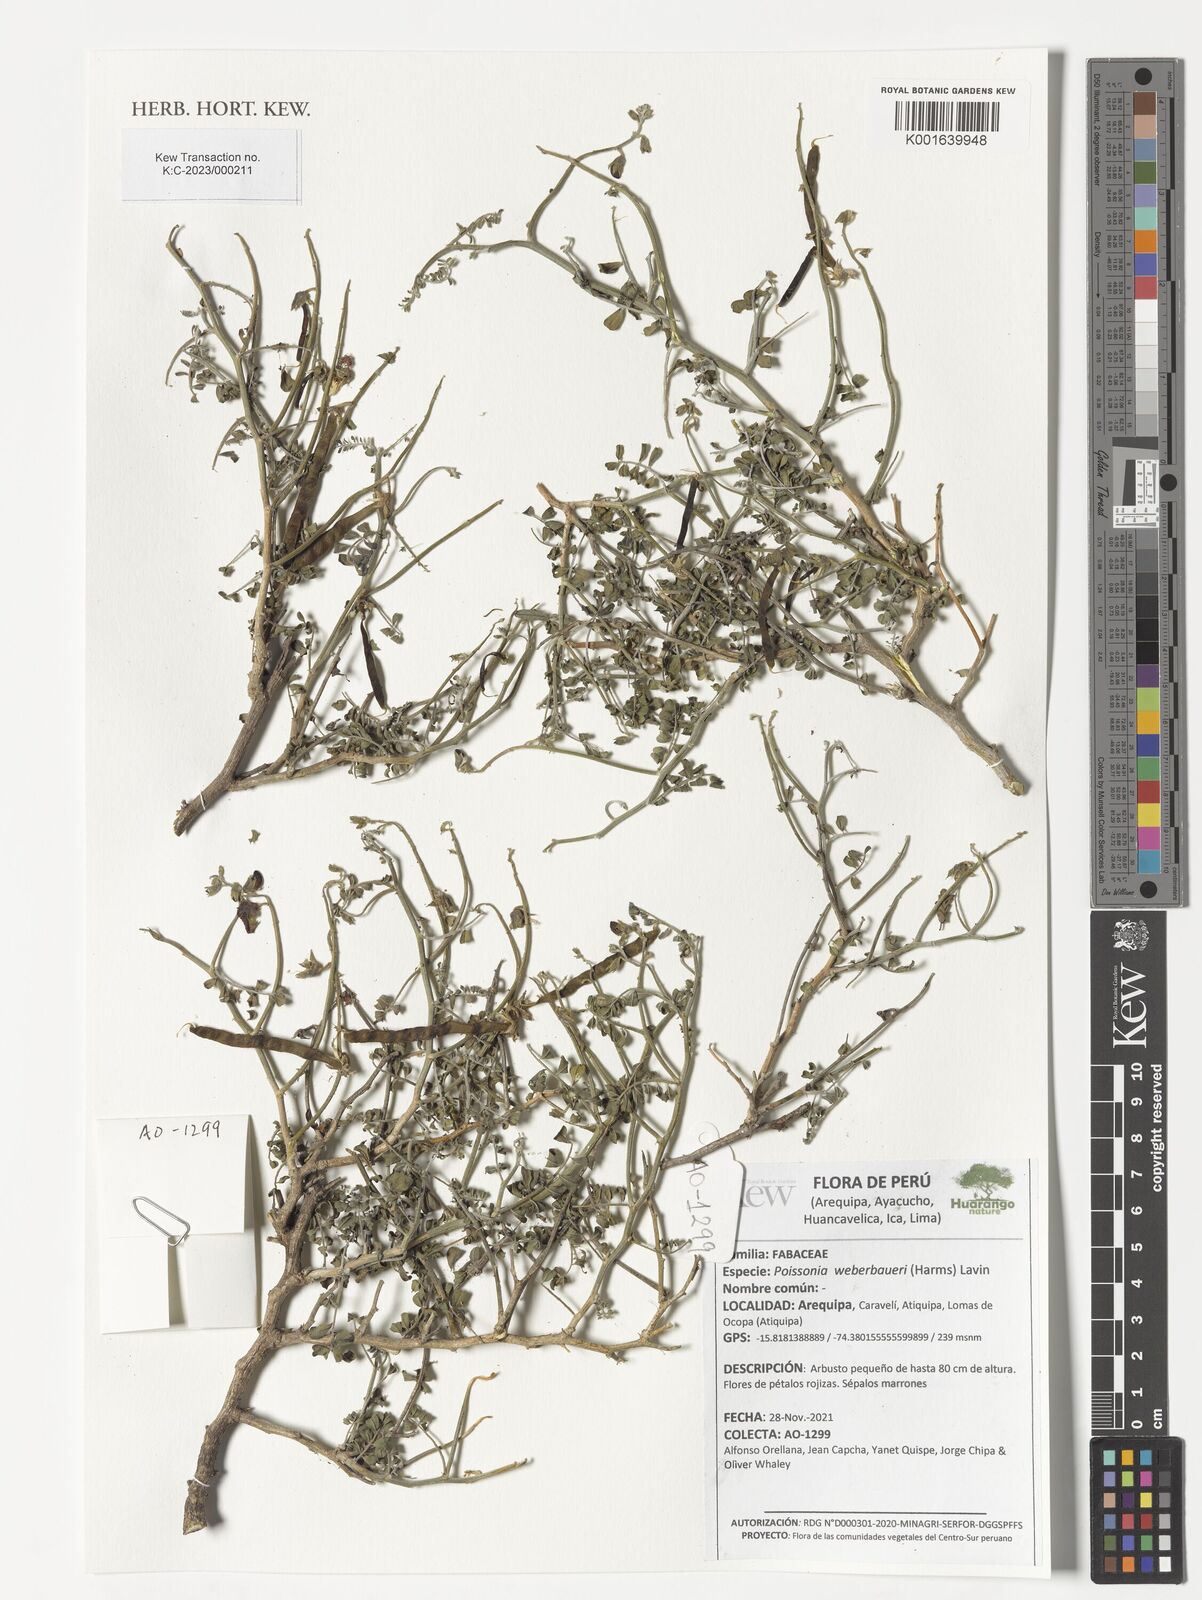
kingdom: Plantae
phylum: Tracheophyta
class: Magnoliopsida
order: Fabales
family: Fabaceae
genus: Poissonia
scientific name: Poissonia weberbaueri
